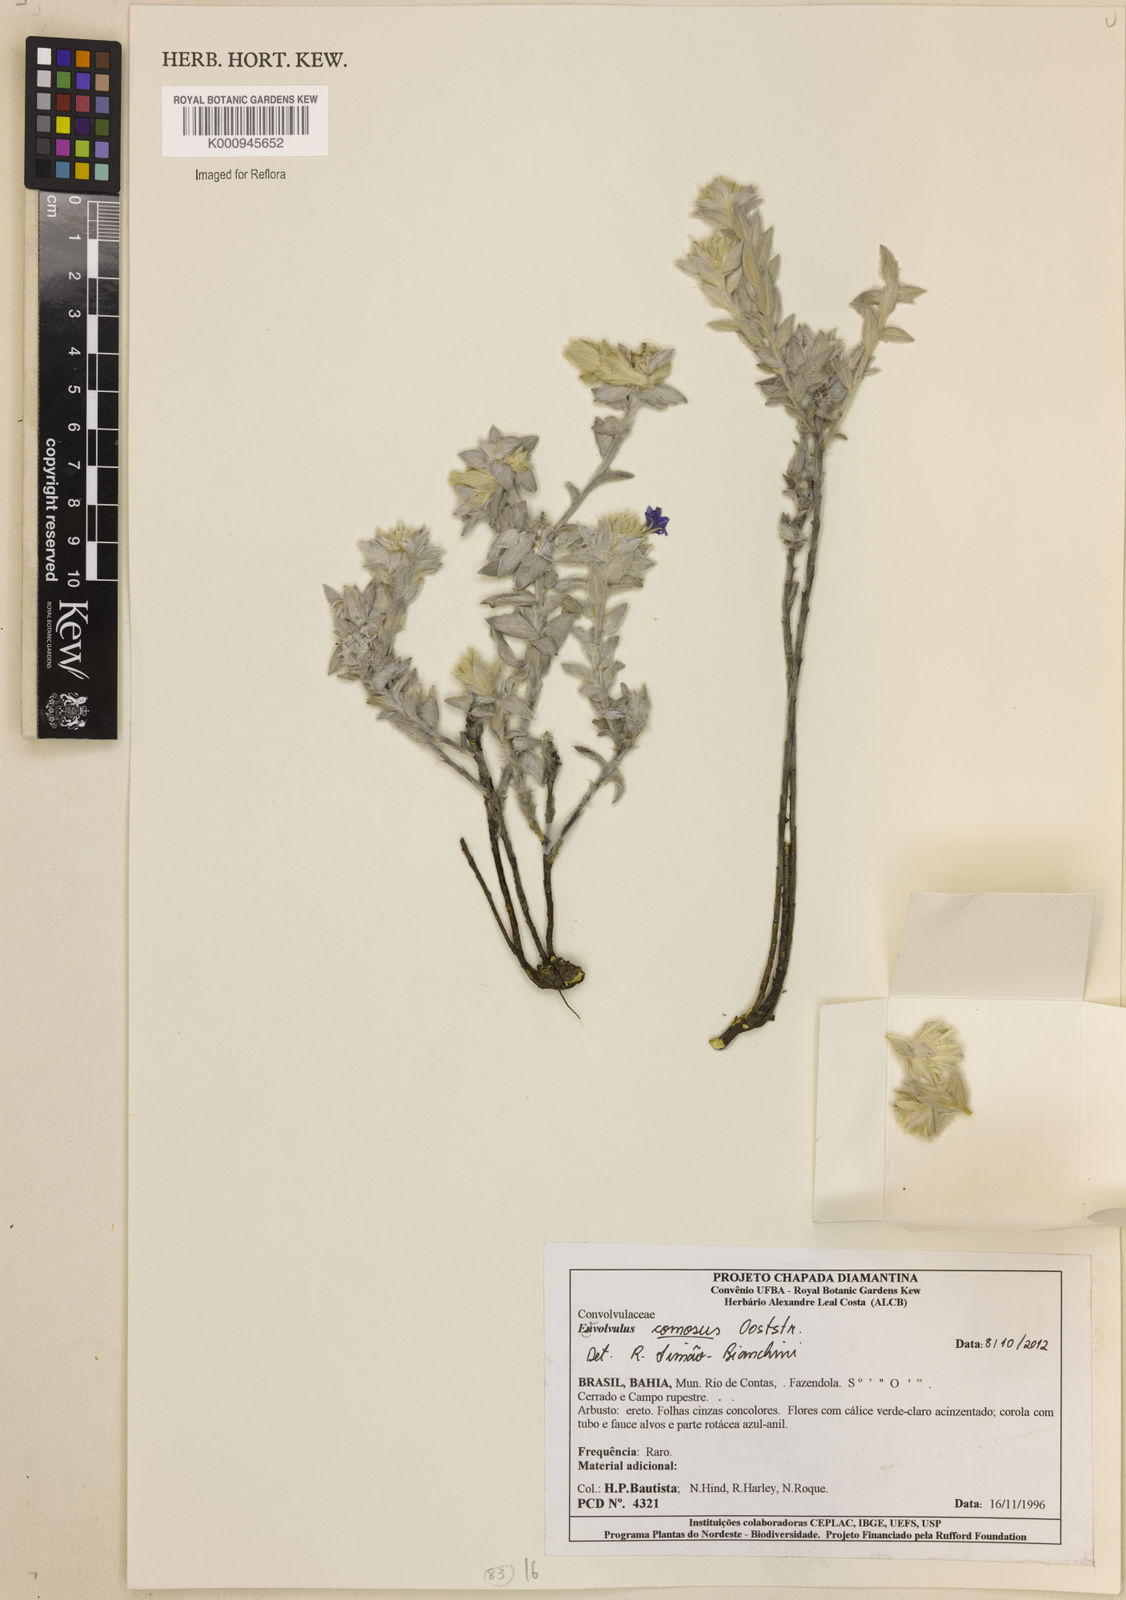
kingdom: Plantae
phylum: Tracheophyta
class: Magnoliopsida
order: Solanales
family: Convolvulaceae
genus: Evolvulus
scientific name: Evolvulus comosus
